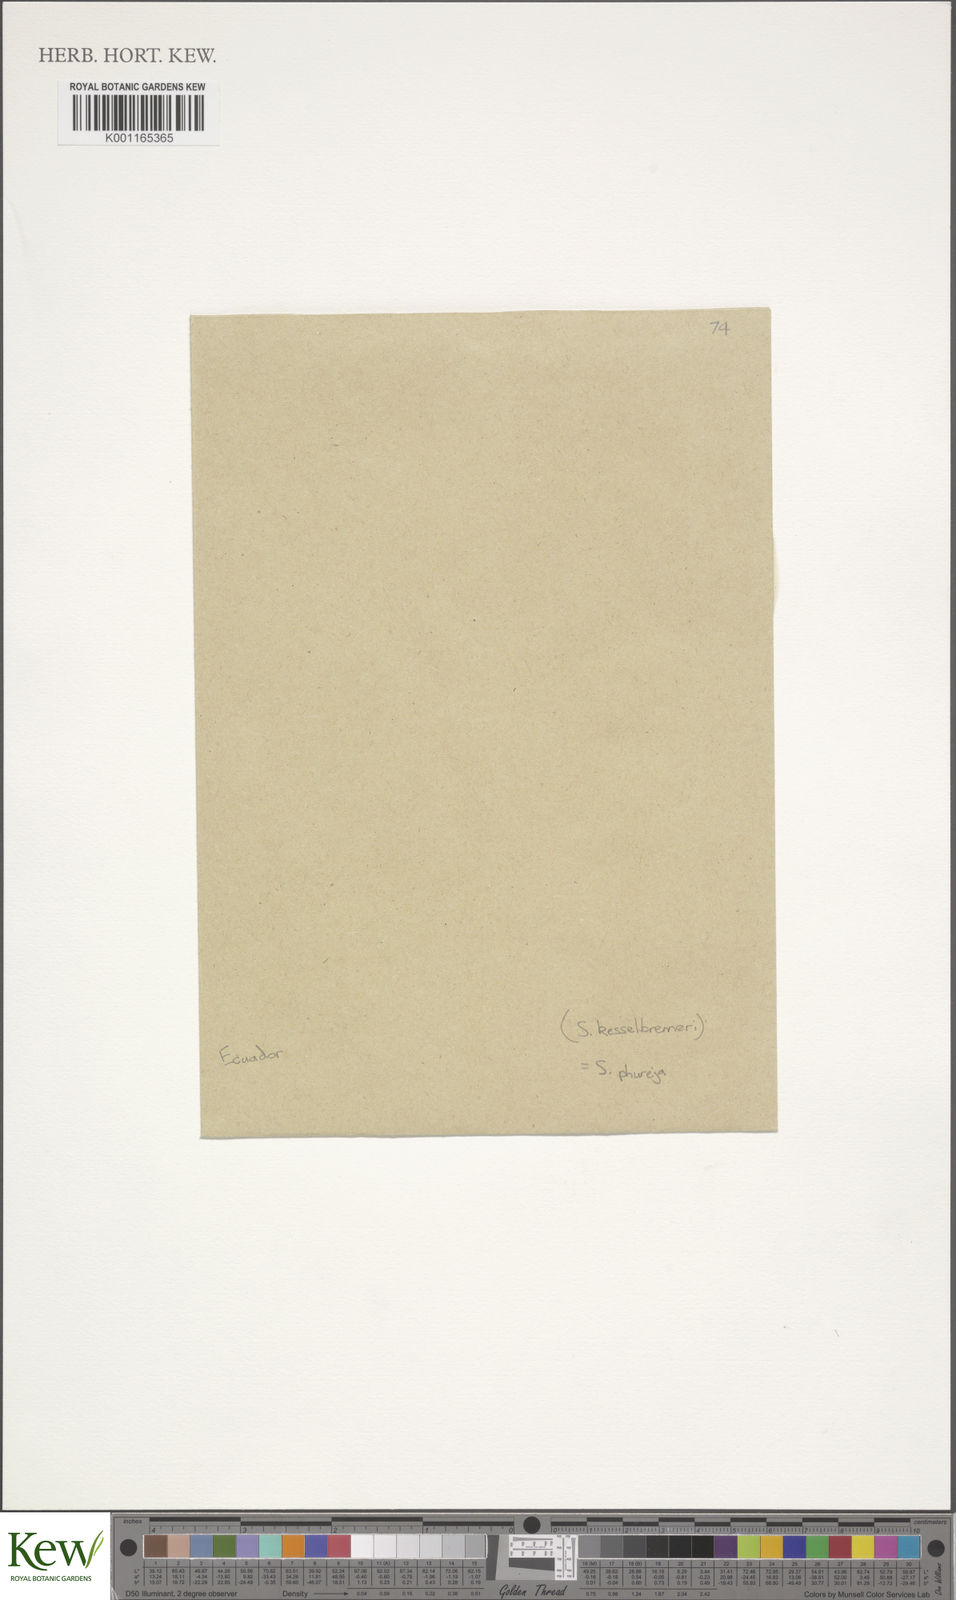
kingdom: Plantae
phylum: Tracheophyta
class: Magnoliopsida
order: Solanales
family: Solanaceae
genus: Solanum
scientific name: Solanum tuberosum
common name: Potato
